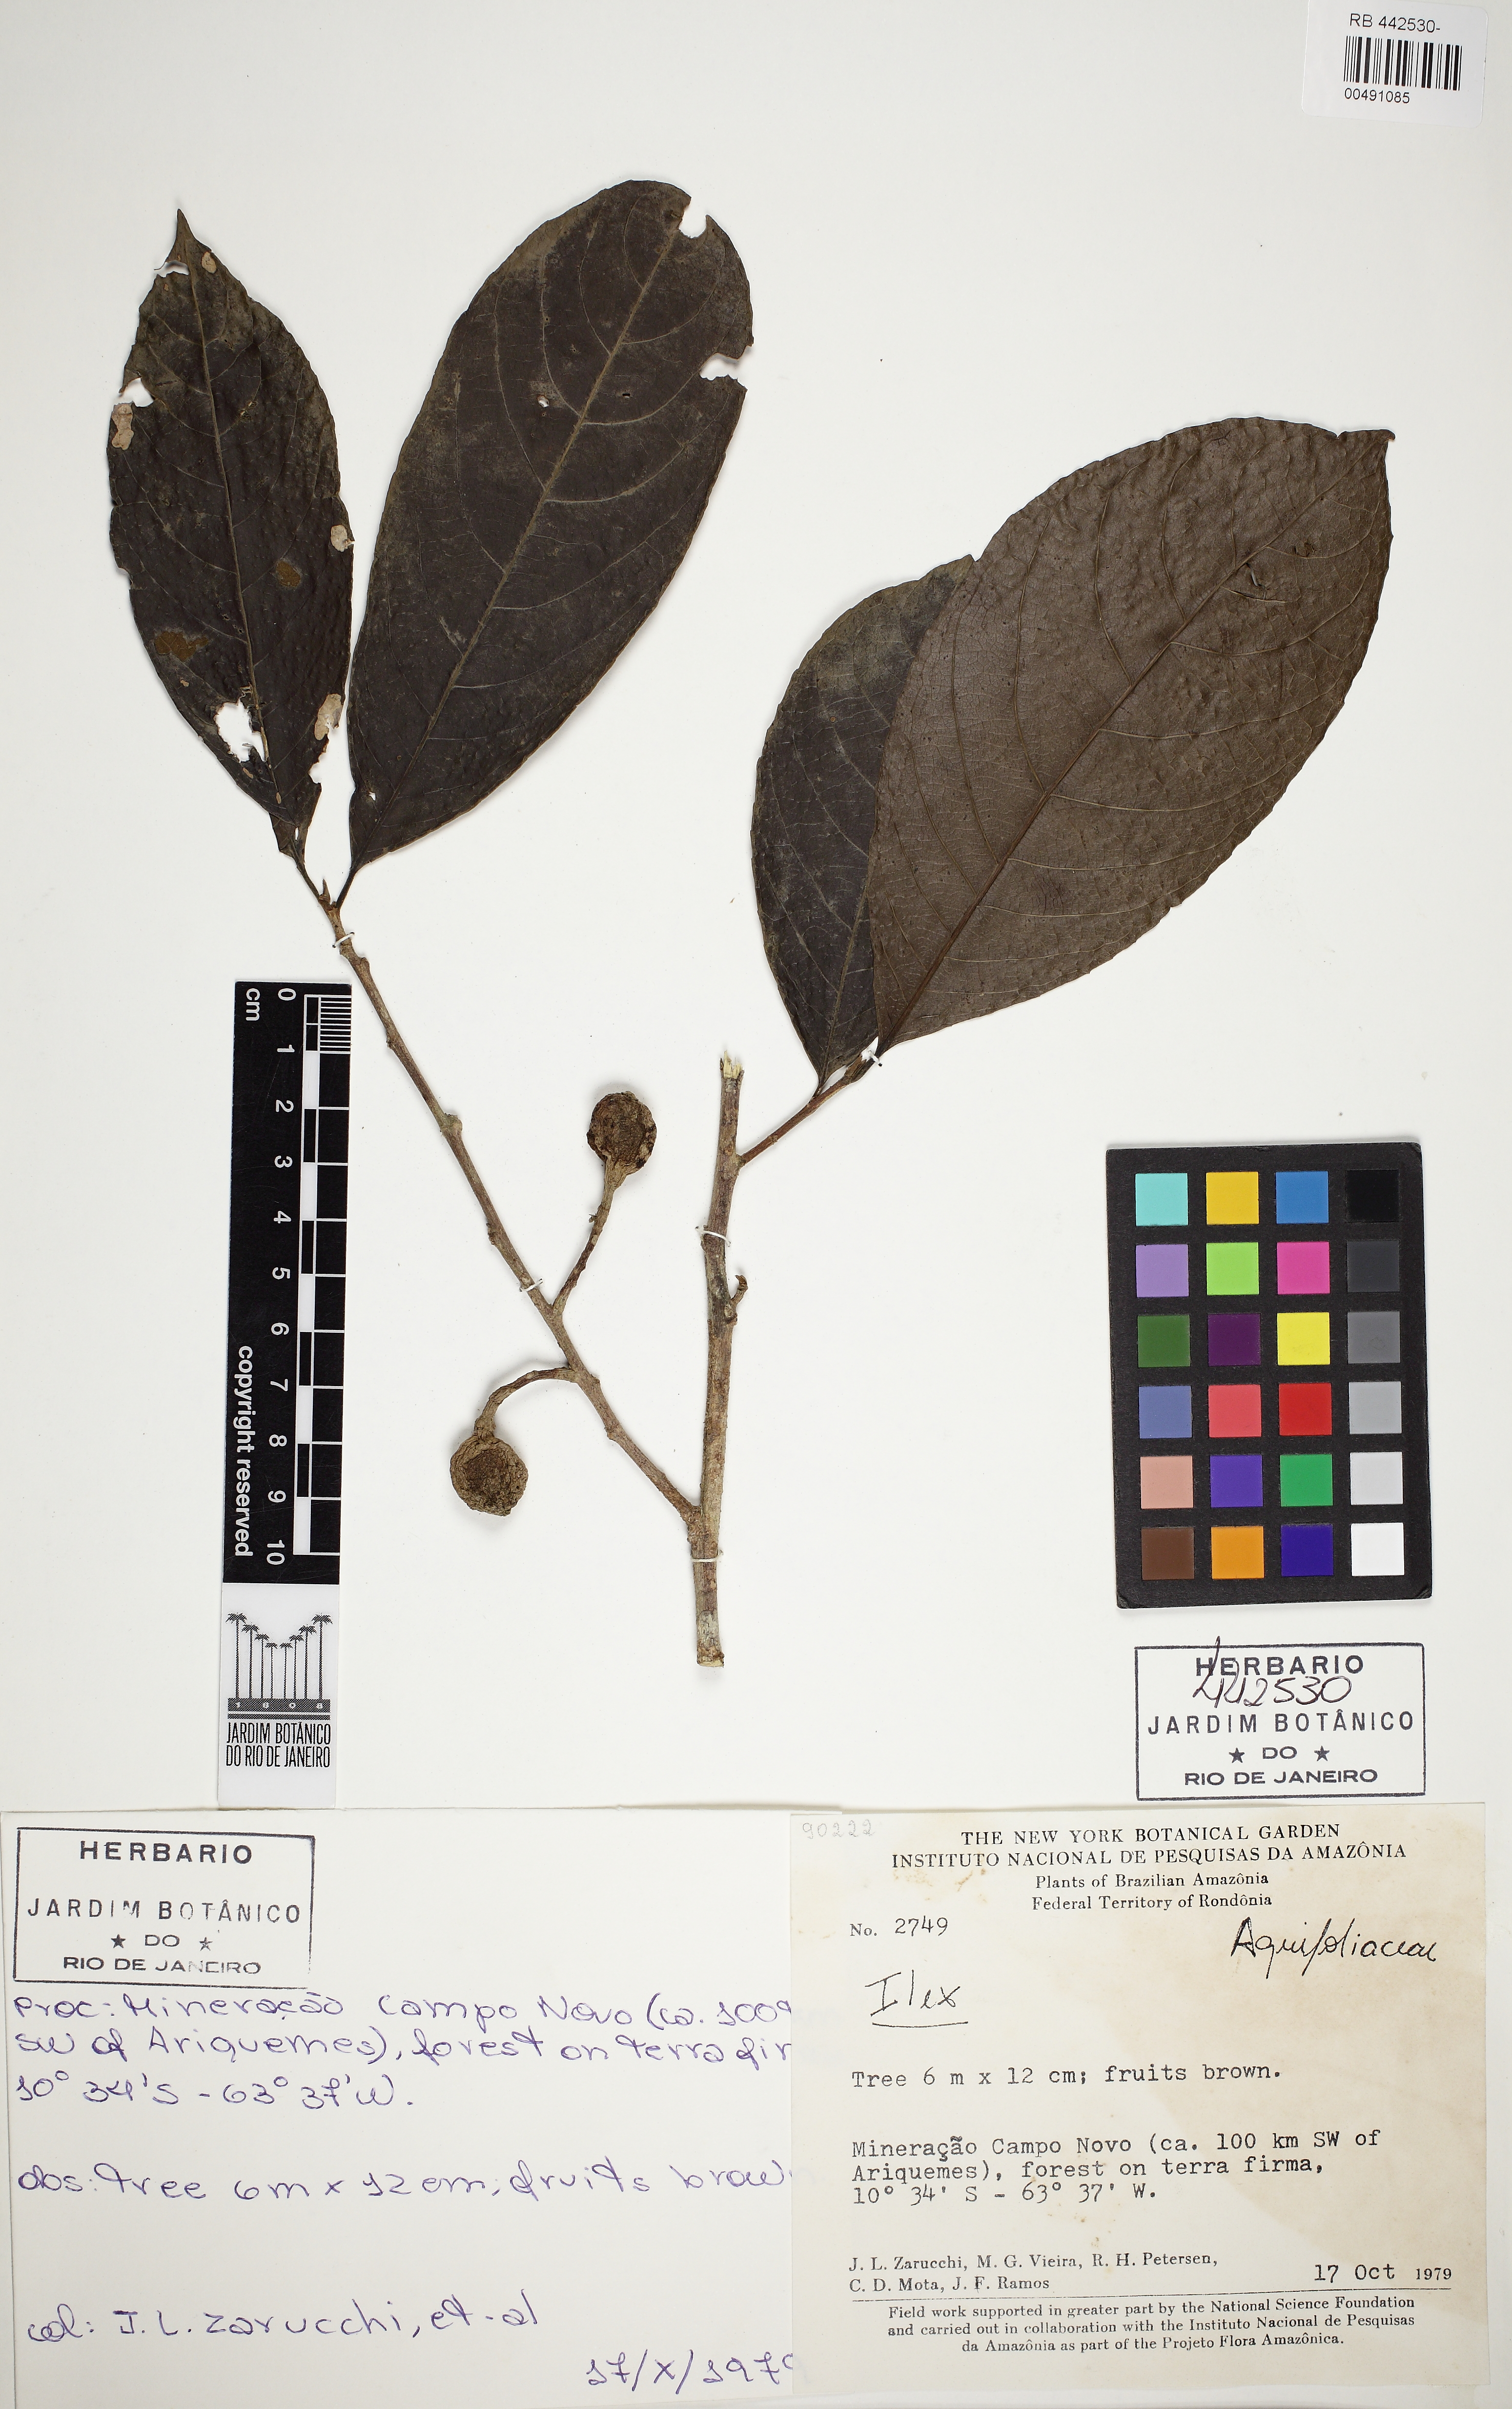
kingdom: Plantae
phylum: Tracheophyta
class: Magnoliopsida
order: Aquifoliales
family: Aquifoliaceae
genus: Ilex
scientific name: Ilex
